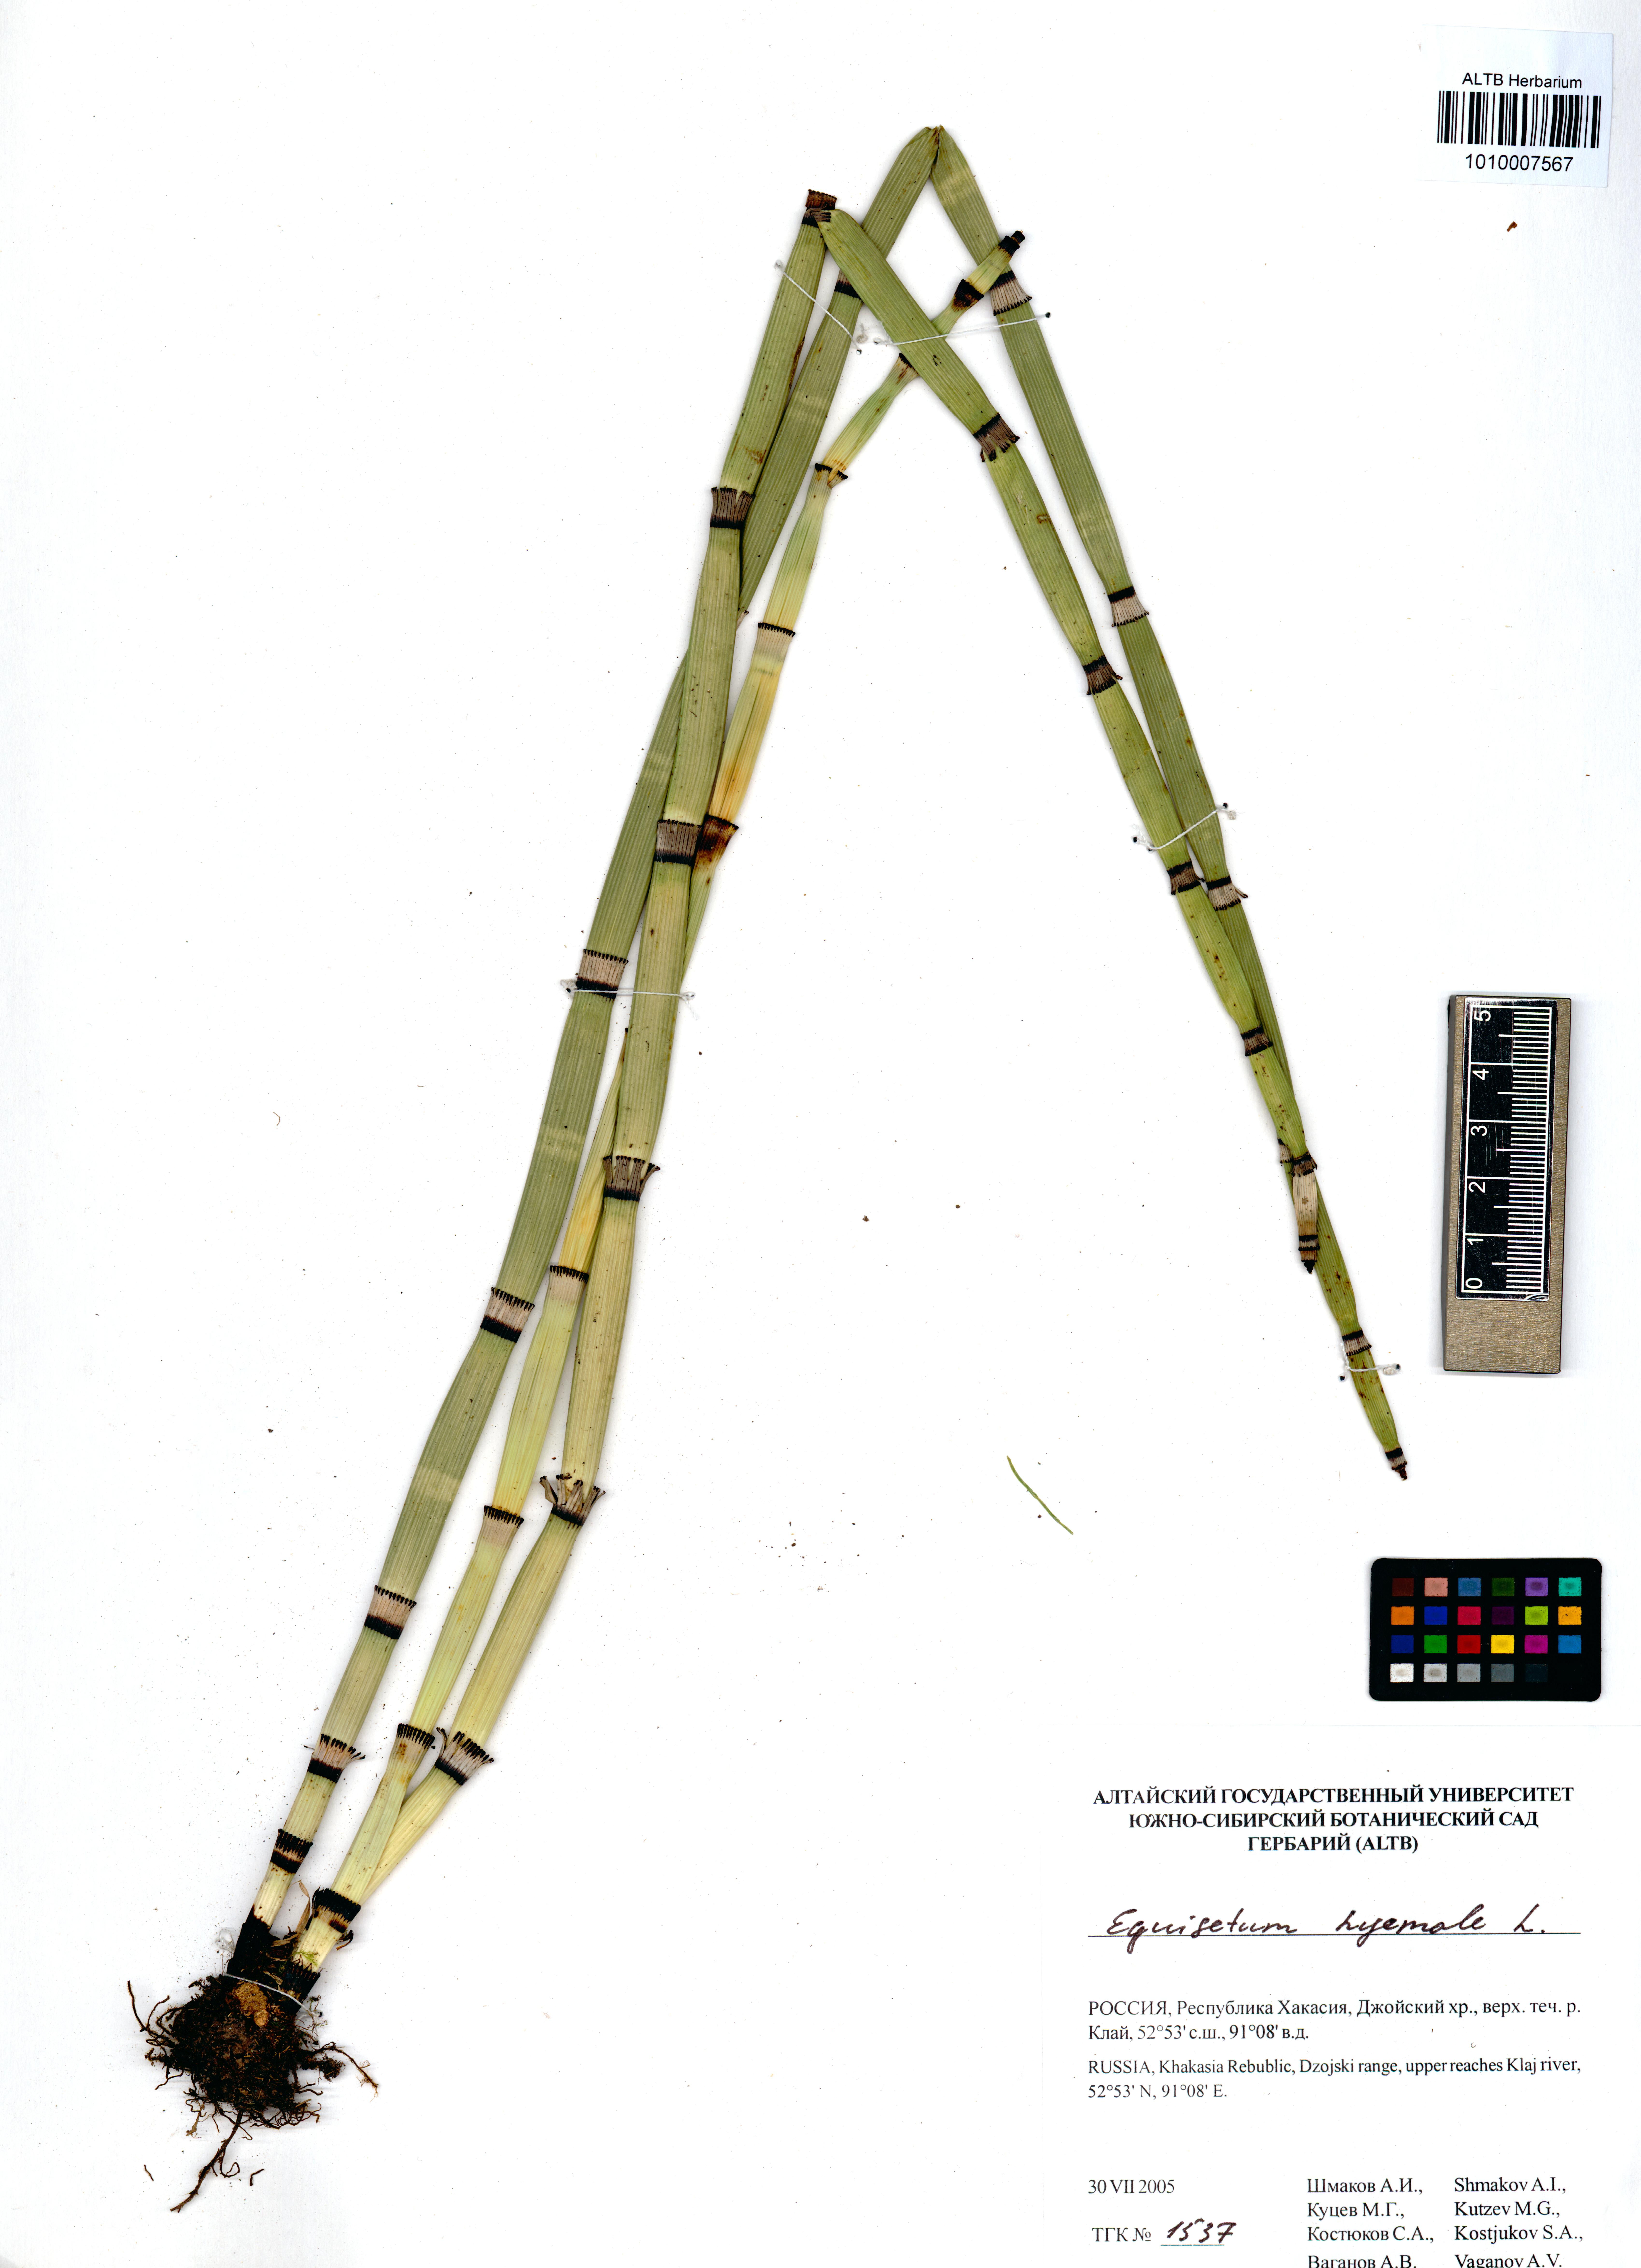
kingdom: Plantae
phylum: Tracheophyta
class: Polypodiopsida
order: Equisetales
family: Equisetaceae
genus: Equisetum
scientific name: Equisetum hyemale
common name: Rough horsetail
